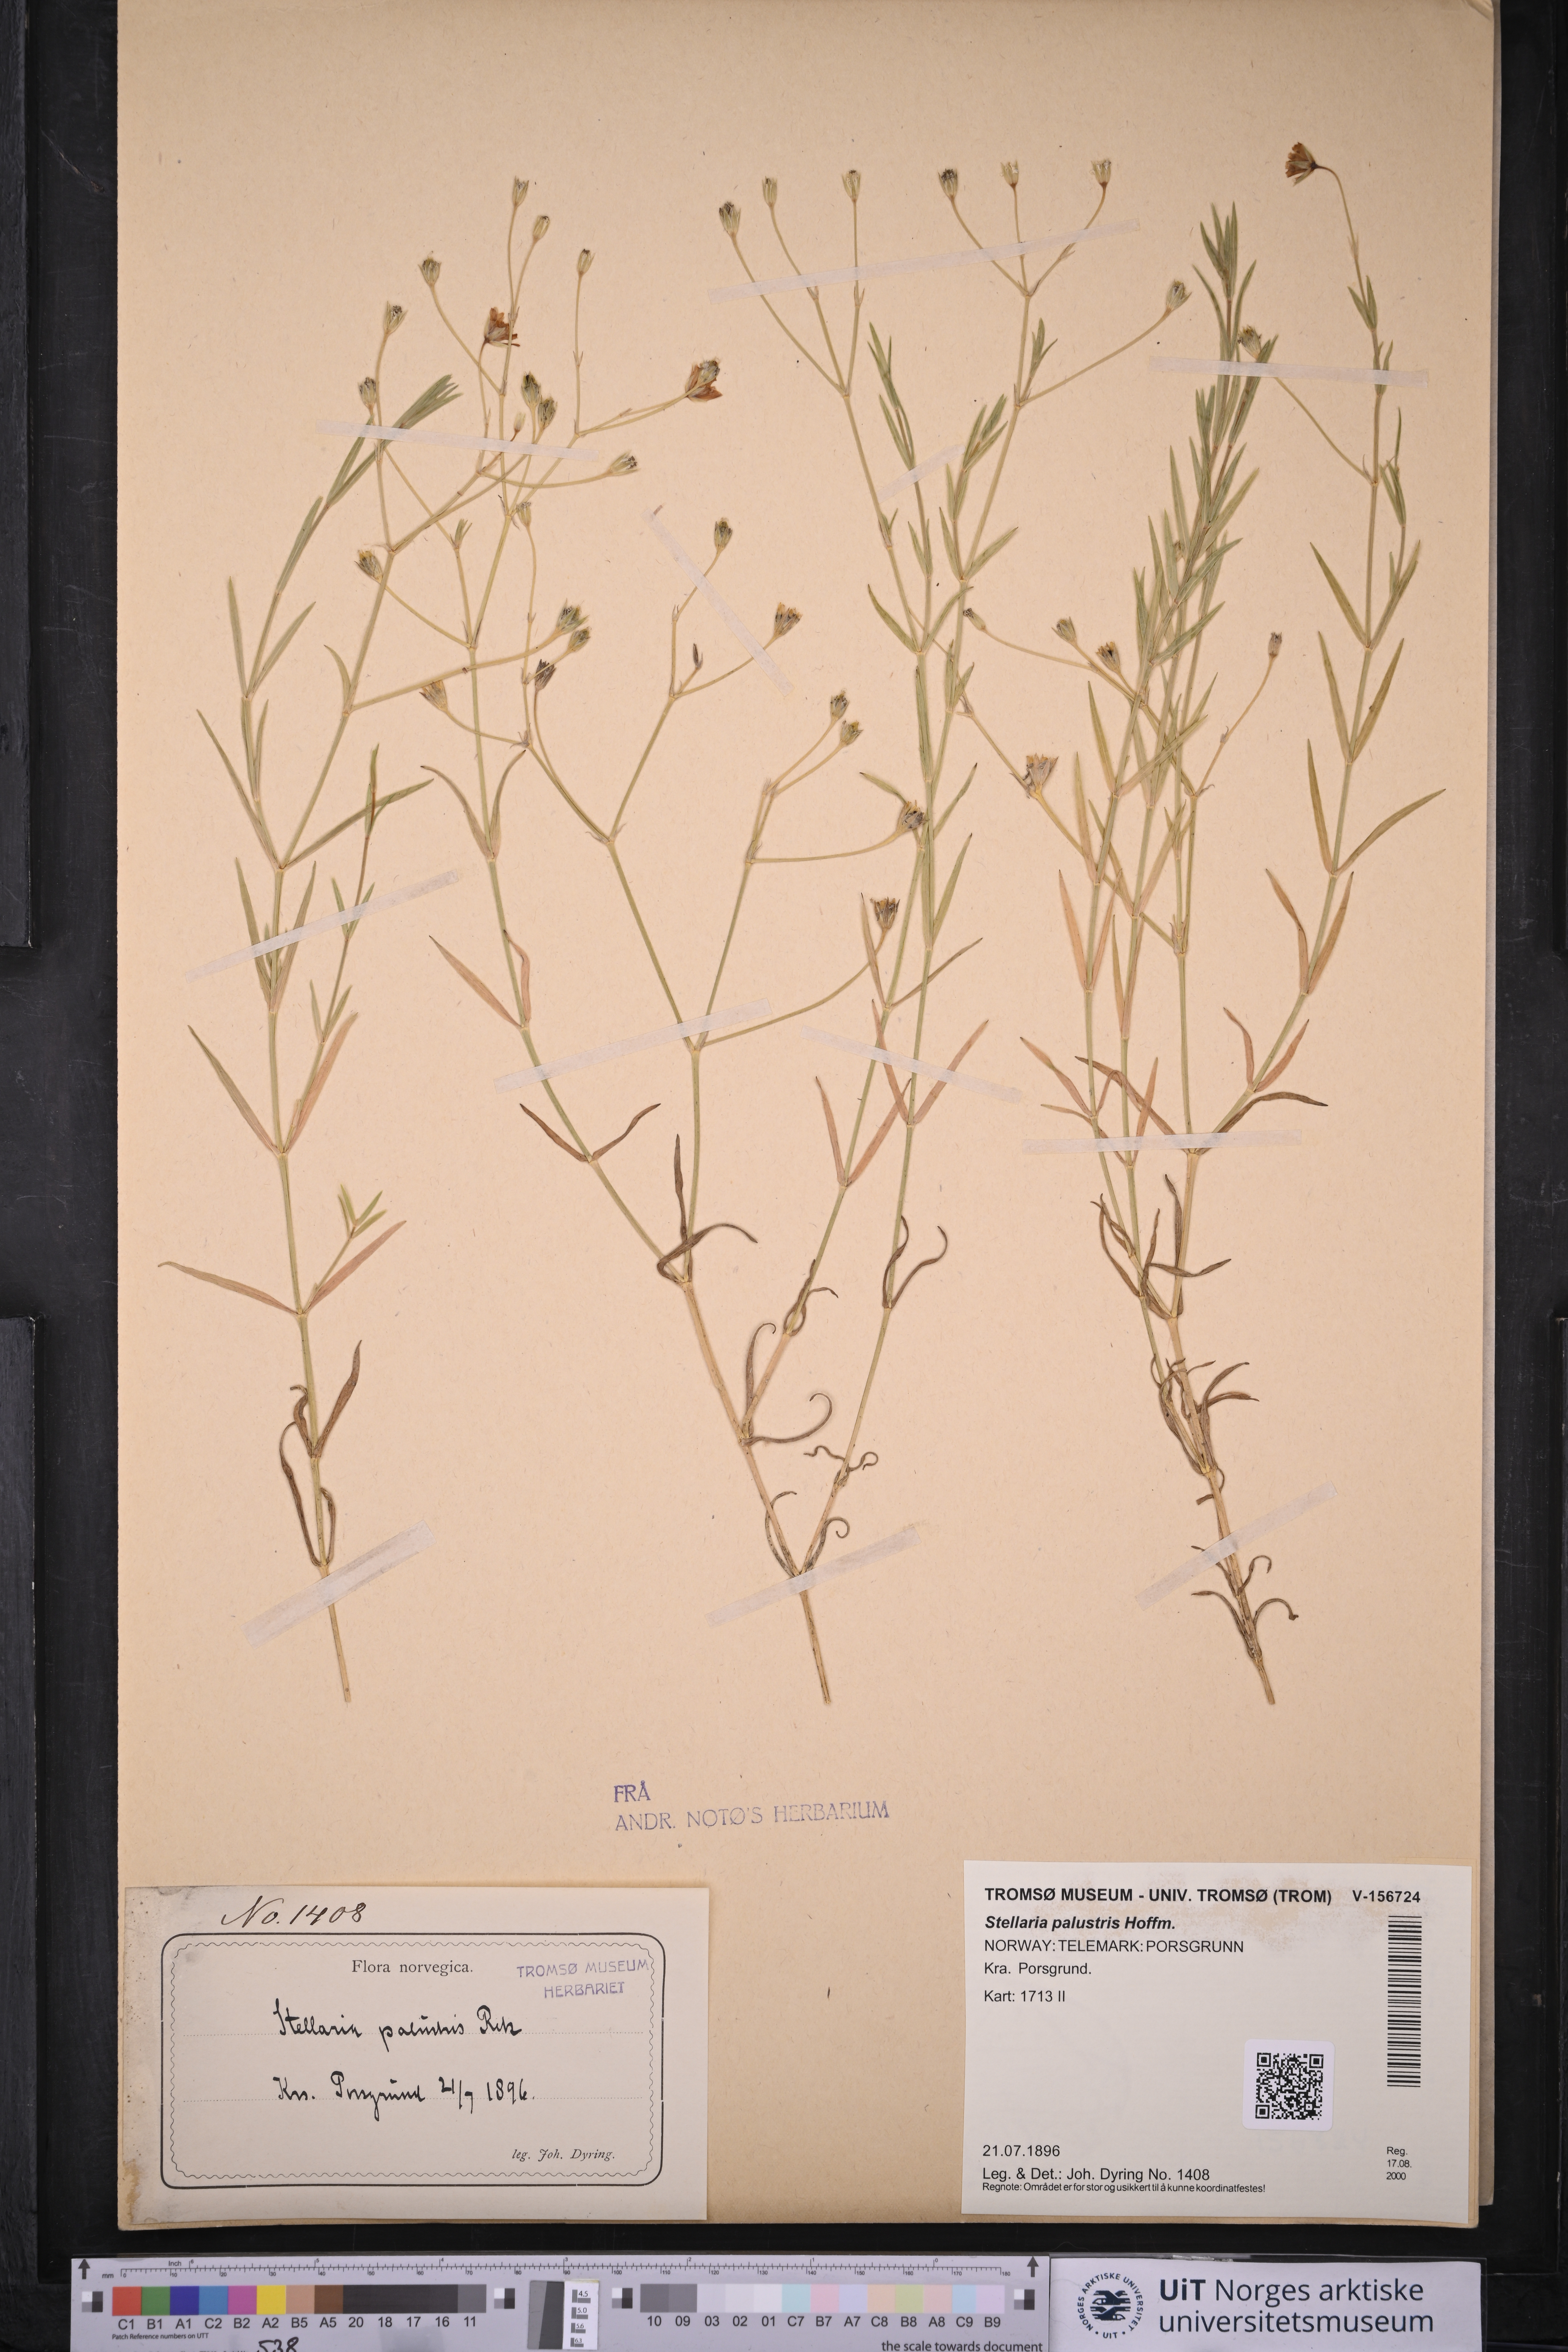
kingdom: Plantae
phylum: Tracheophyta
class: Magnoliopsida
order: Caryophyllales
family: Caryophyllaceae
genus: Stellaria
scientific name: Stellaria palustris
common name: Marsh stitchwort
